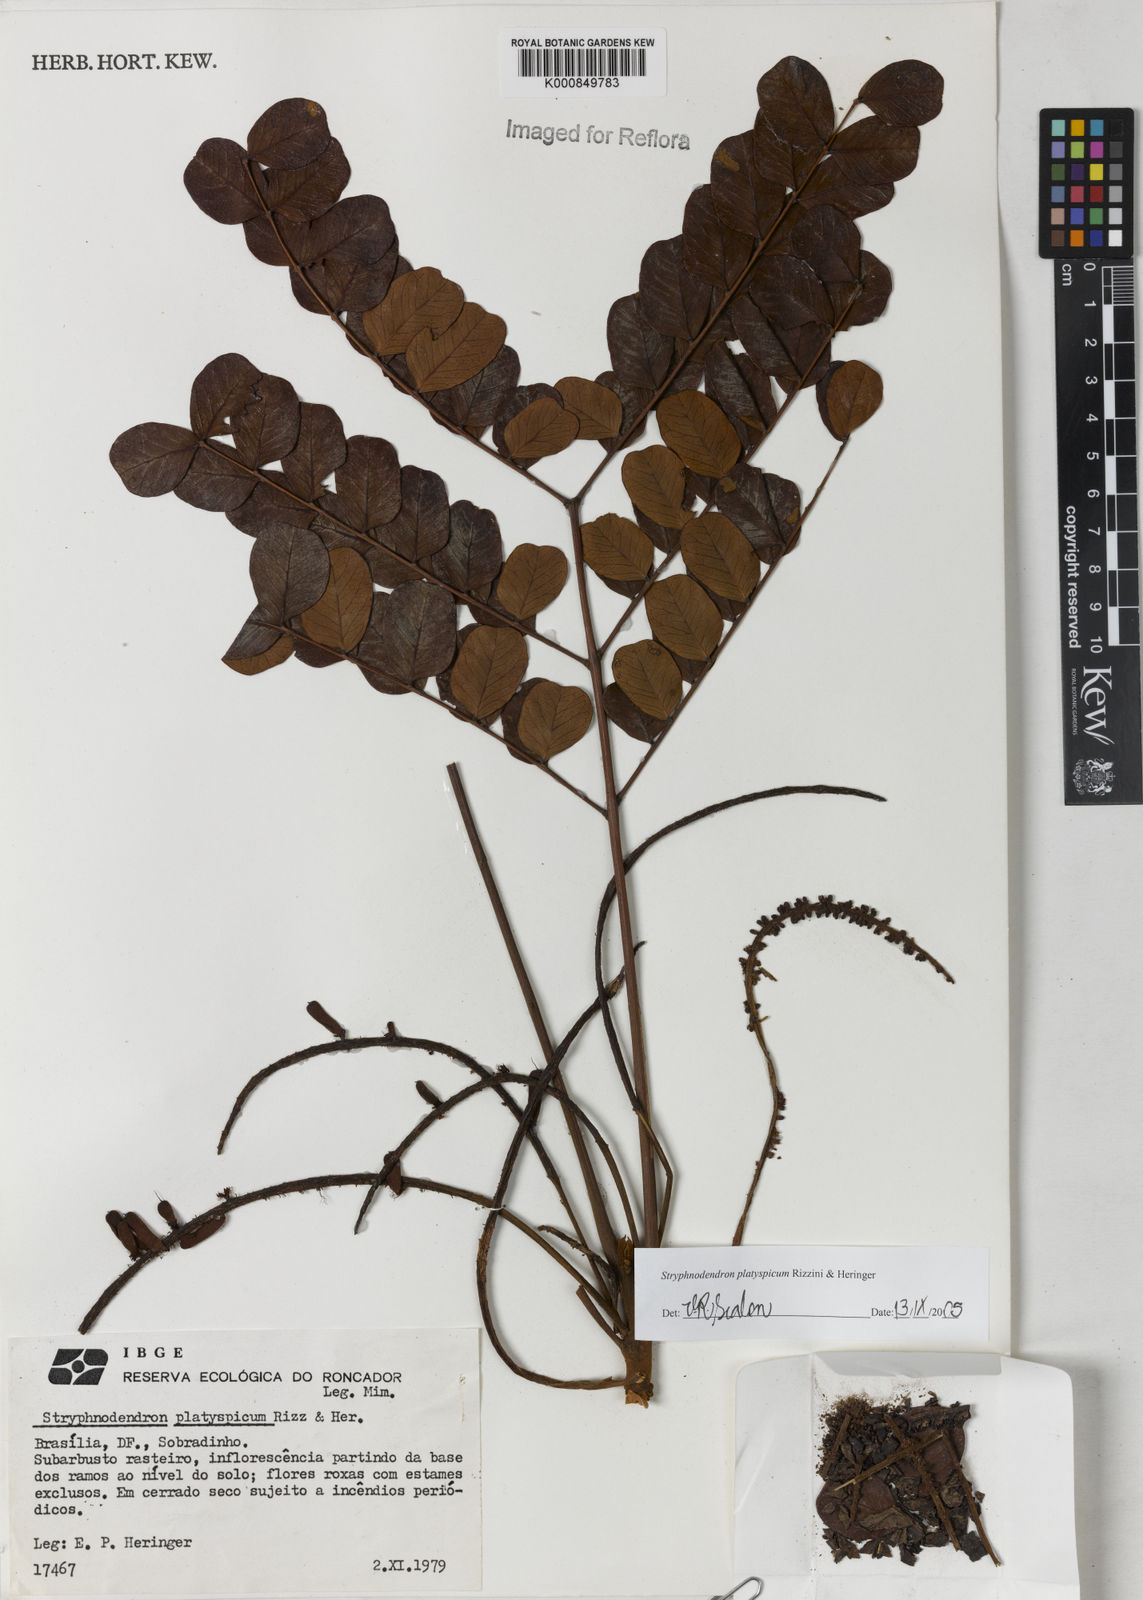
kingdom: Plantae
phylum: Tracheophyta
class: Magnoliopsida
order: Fabales
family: Fabaceae
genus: Stryphnodendron
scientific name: Stryphnodendron
